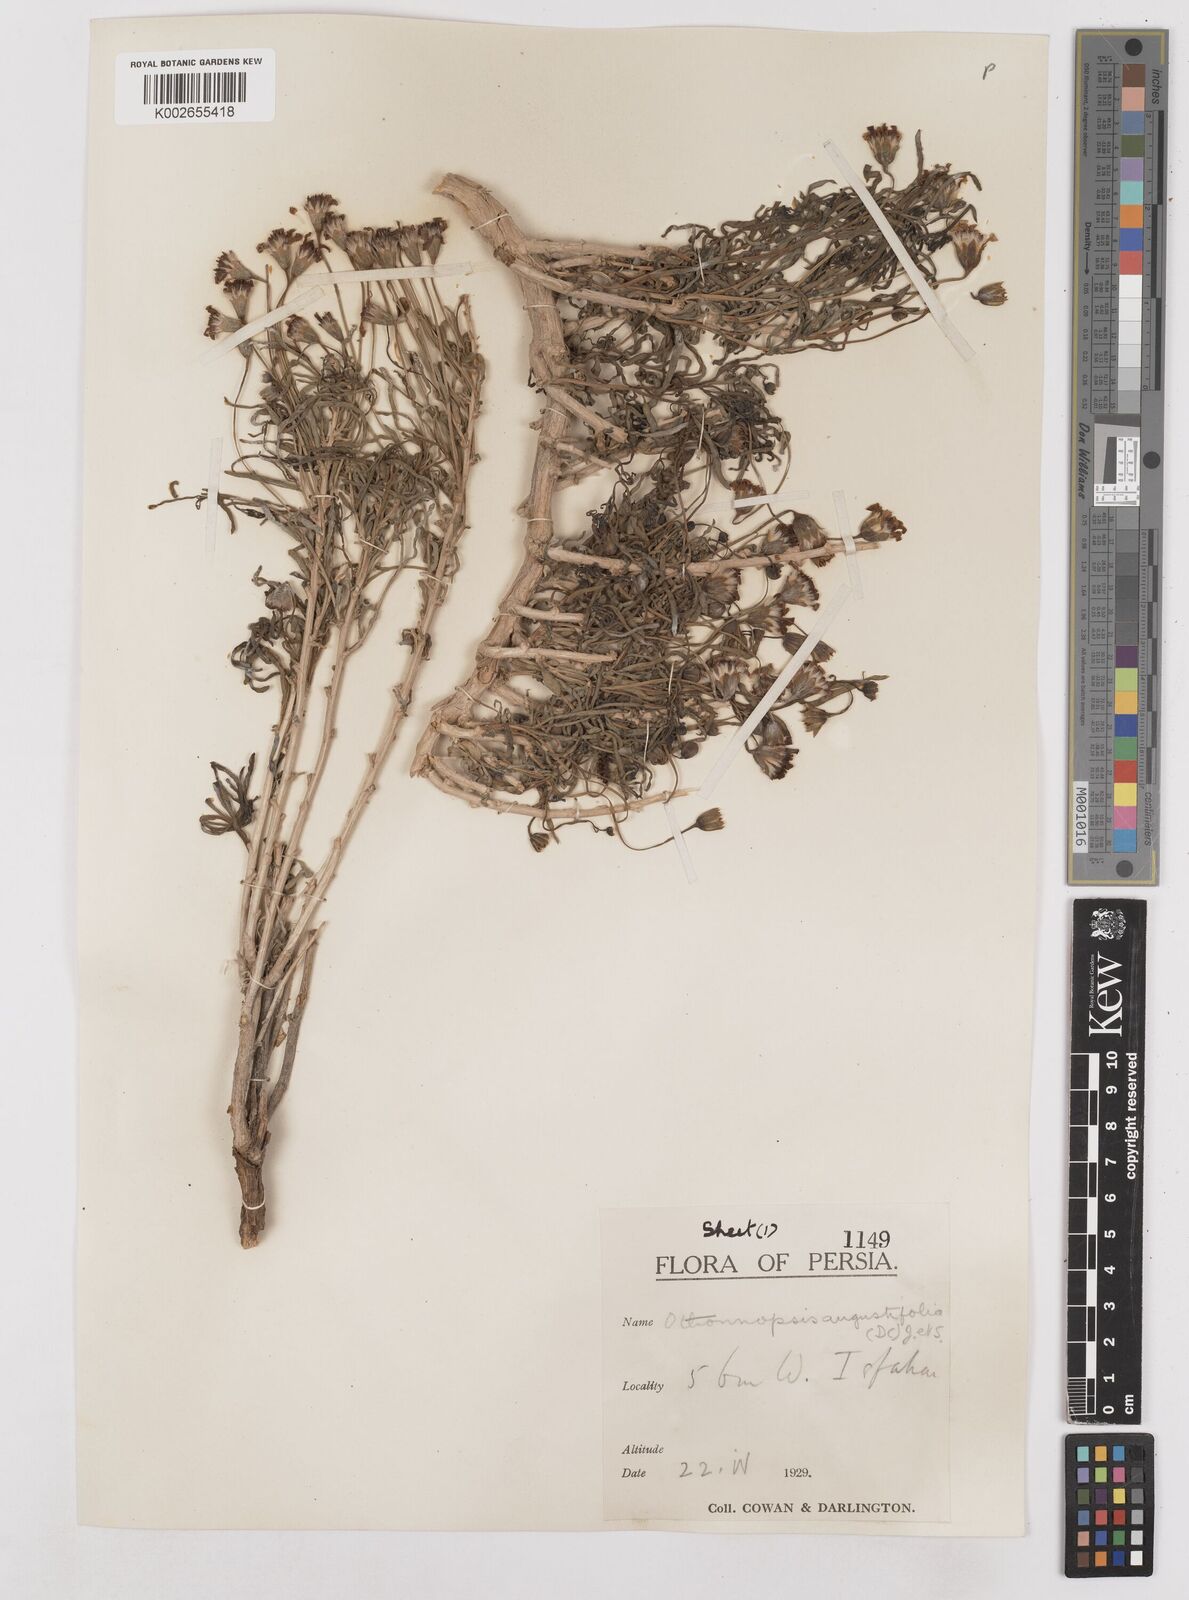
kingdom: Plantae
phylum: Tracheophyta
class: Magnoliopsida
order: Asterales
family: Asteraceae
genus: Hertia
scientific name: Hertia angustifolia
